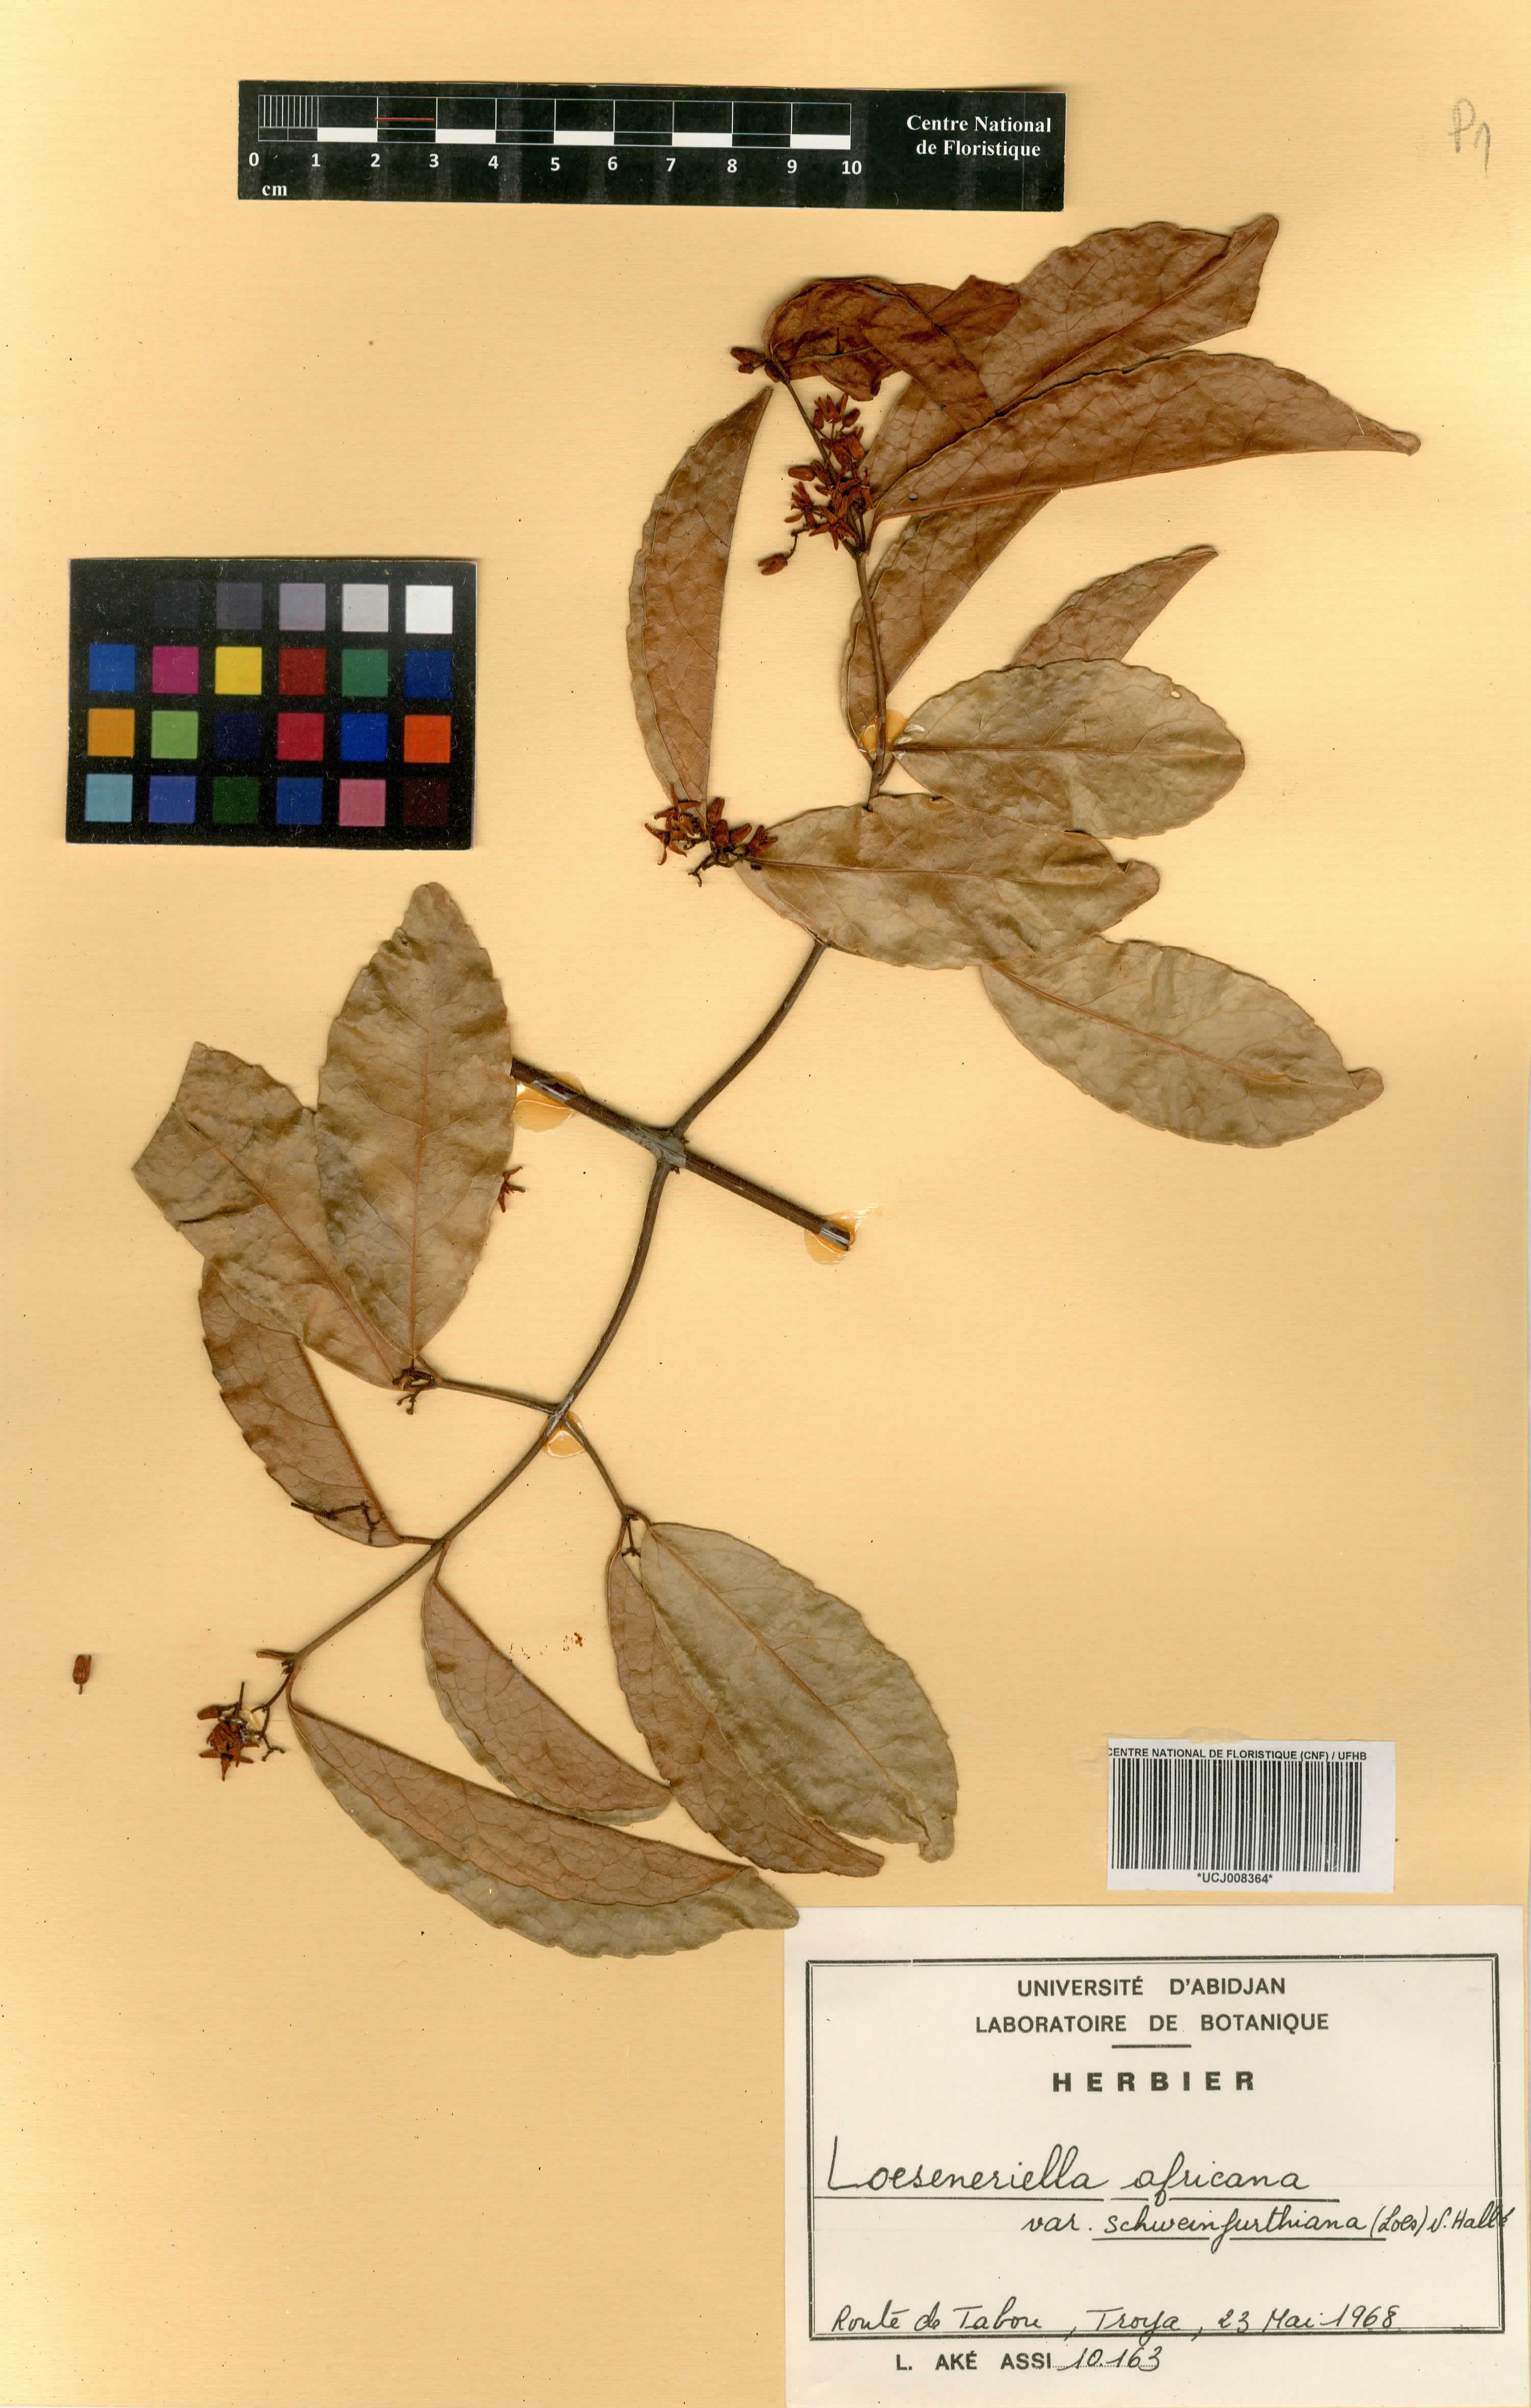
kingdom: Plantae
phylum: Tracheophyta
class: Magnoliopsida
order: Celastrales
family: Celastraceae
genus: Loeseneriella
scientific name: Loeseneriella africana
